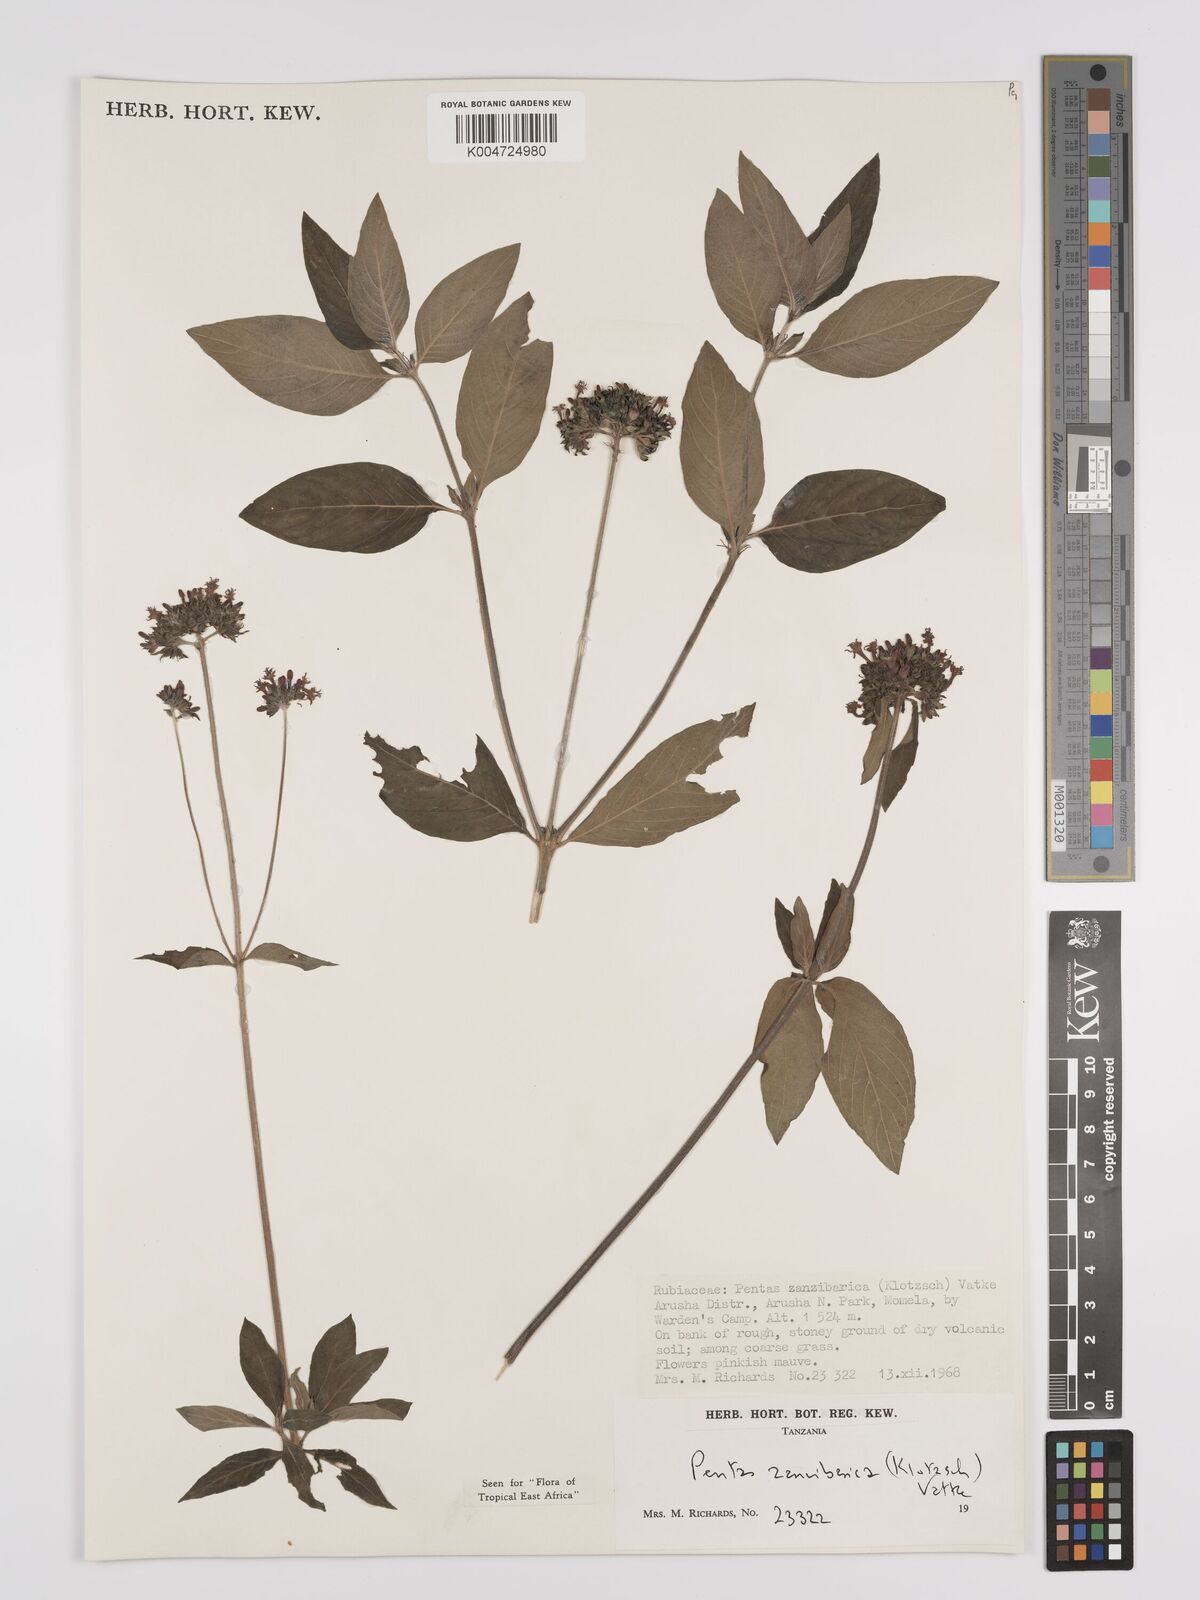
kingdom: Plantae
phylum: Tracheophyta
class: Magnoliopsida
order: Gentianales
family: Rubiaceae
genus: Pentas
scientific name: Pentas zanzibarica
